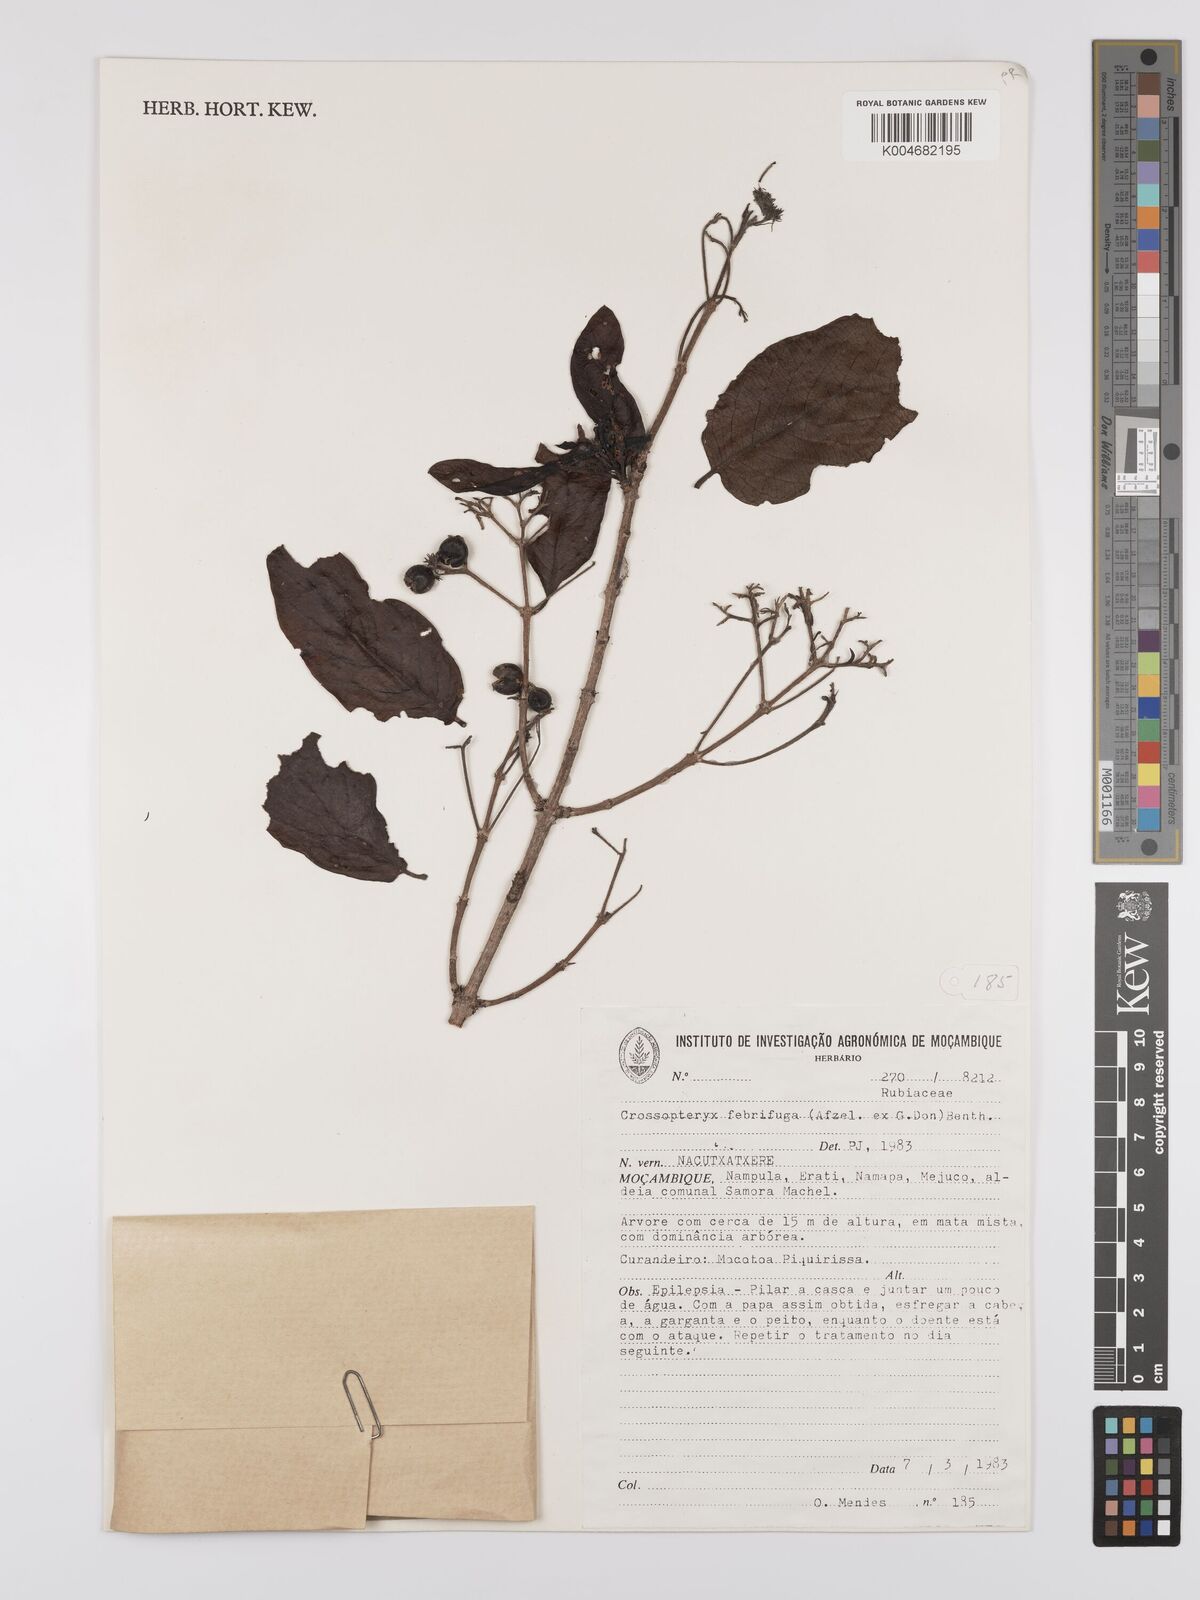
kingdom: Plantae
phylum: Tracheophyta
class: Magnoliopsida
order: Gentianales
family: Rubiaceae
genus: Crossopteryx
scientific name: Crossopteryx febrifuga
